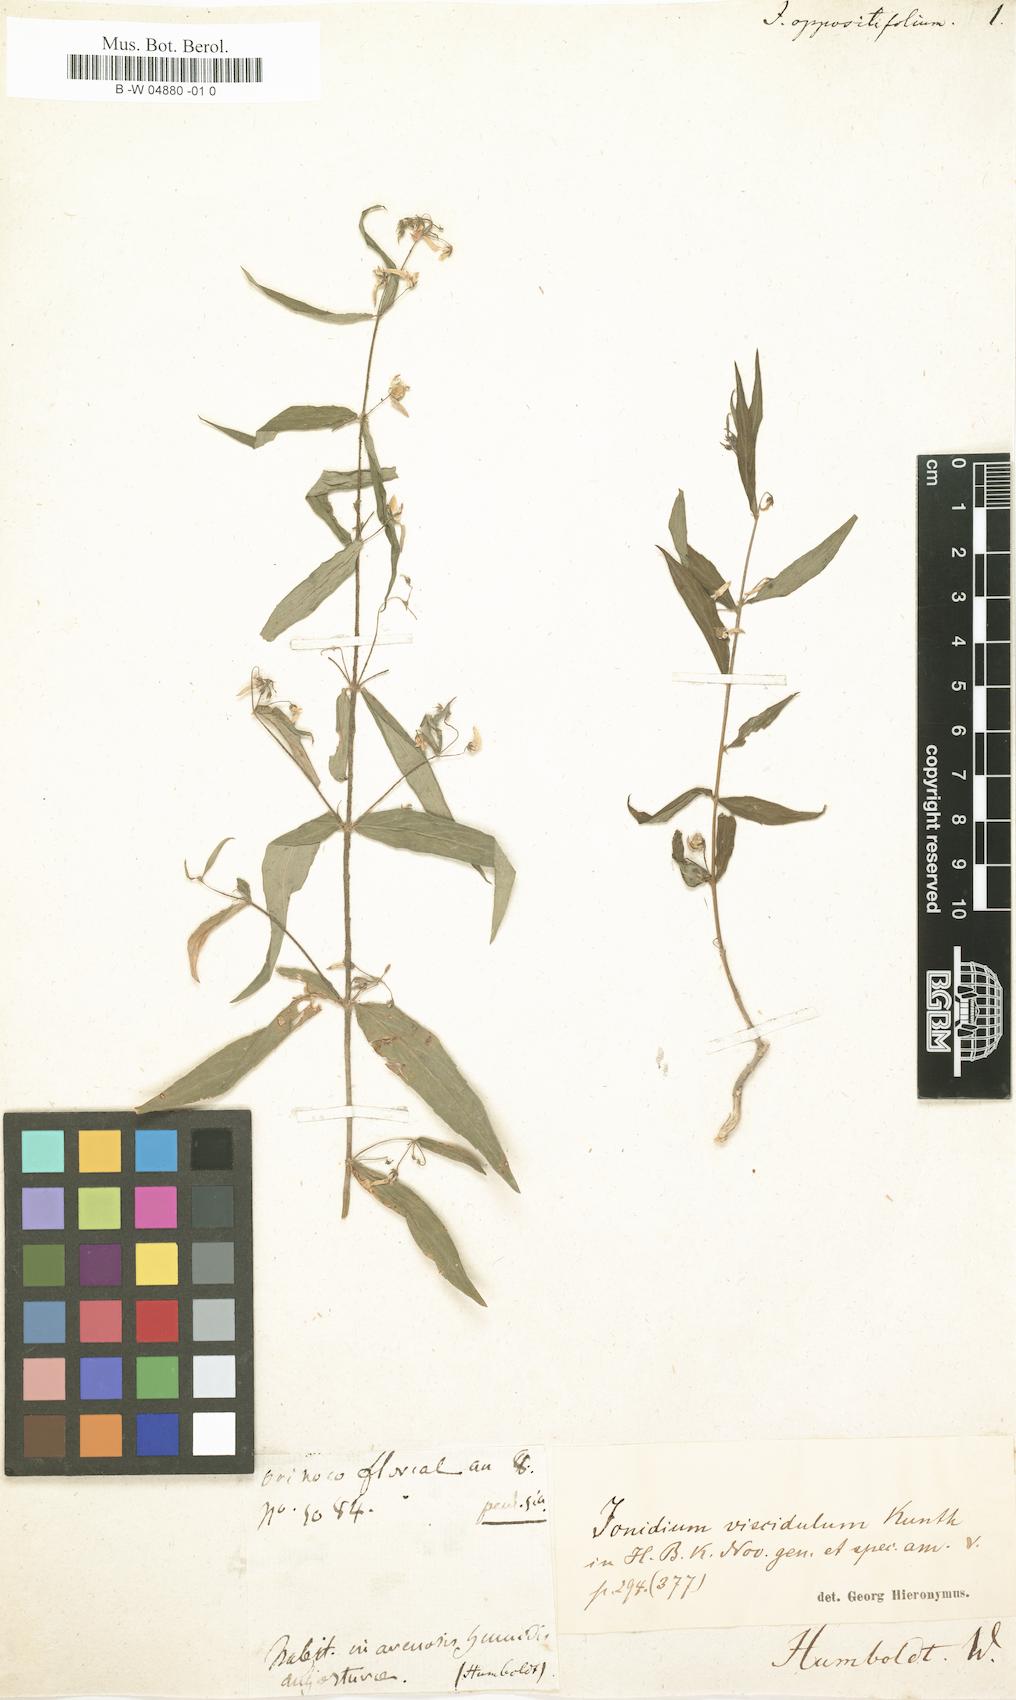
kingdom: Plantae
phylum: Tracheophyta
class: Magnoliopsida
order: Malpighiales
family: Violaceae
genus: Pombalia
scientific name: Pombalia oppositifolia
